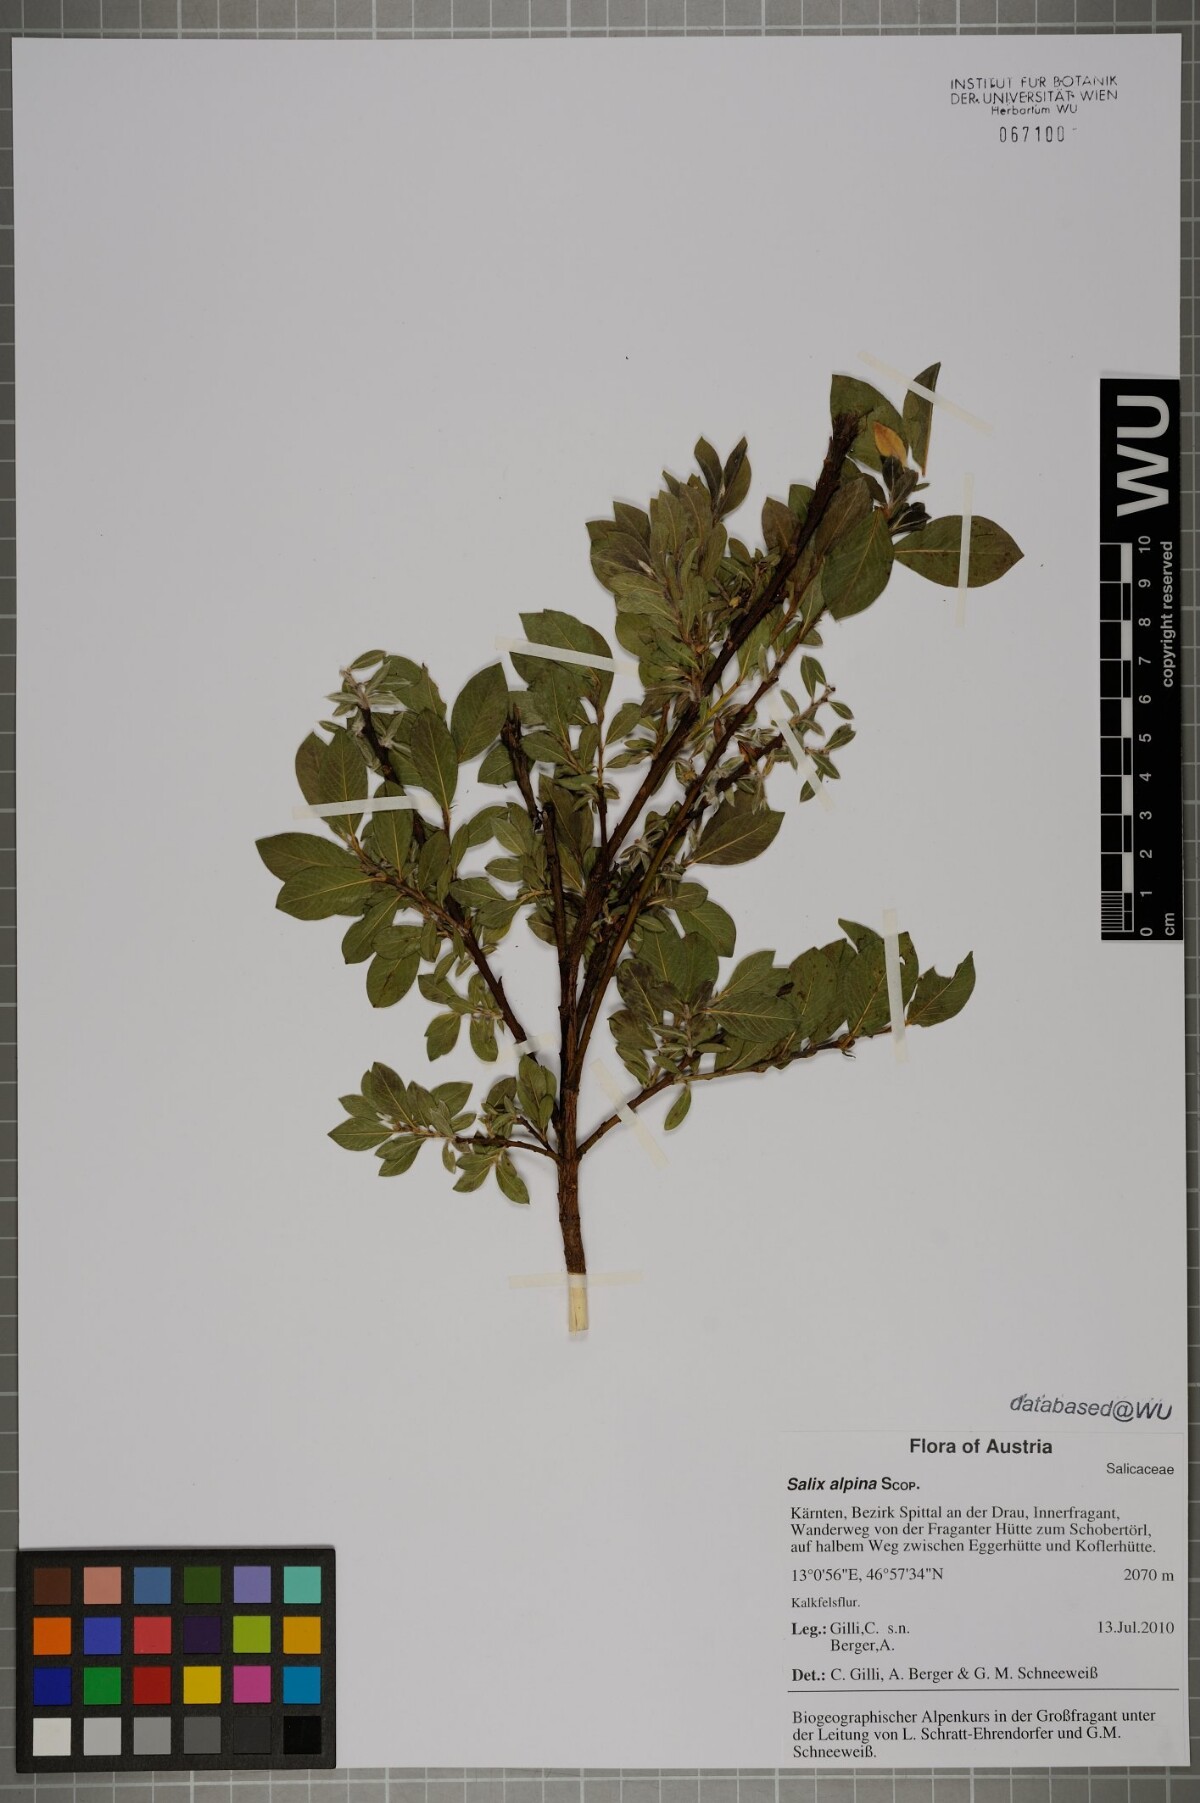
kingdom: Plantae
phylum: Tracheophyta
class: Magnoliopsida
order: Malpighiales
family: Salicaceae
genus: Salix
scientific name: Salix alpina
